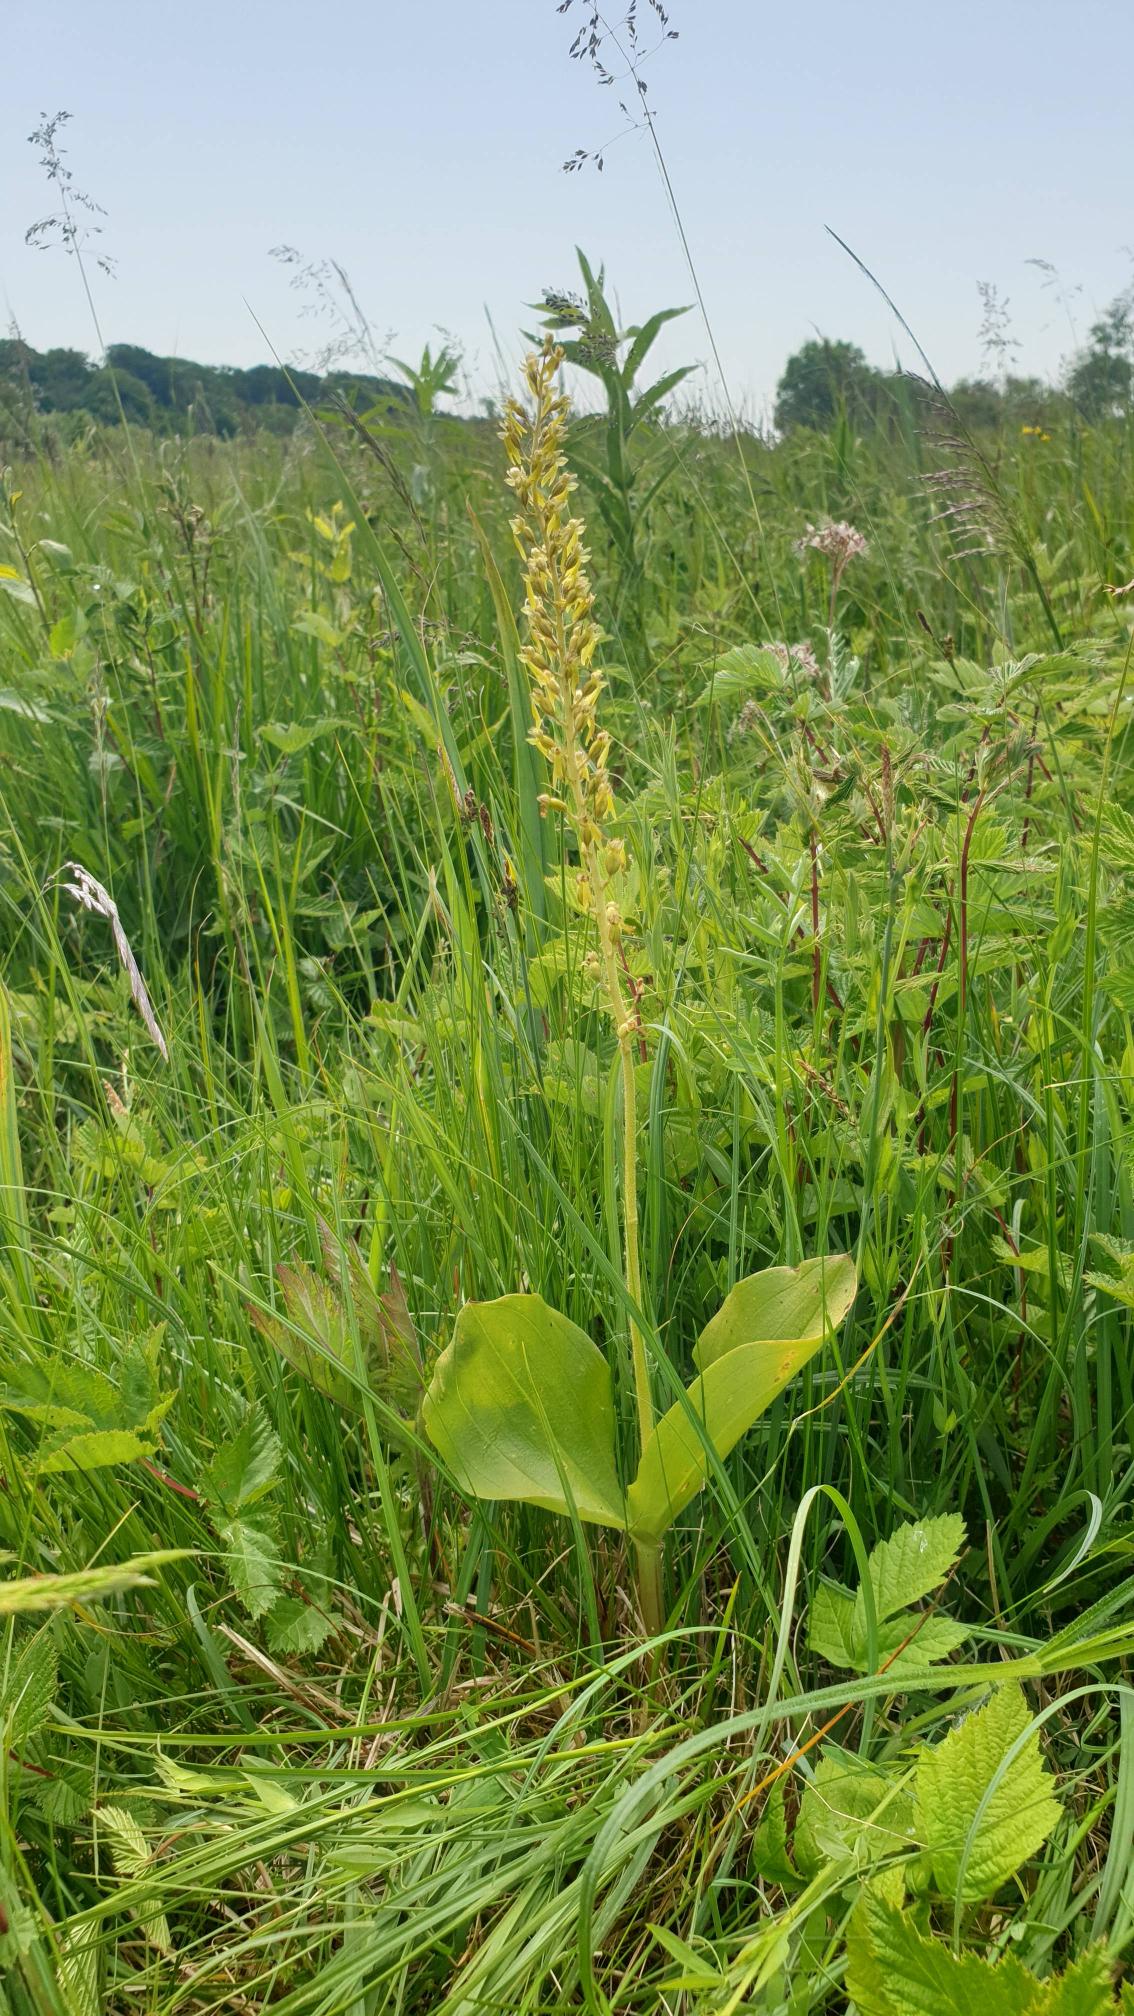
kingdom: Plantae
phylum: Tracheophyta
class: Liliopsida
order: Asparagales
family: Orchidaceae
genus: Neottia
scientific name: Neottia ovata
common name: Ægbladet fliglæbe
